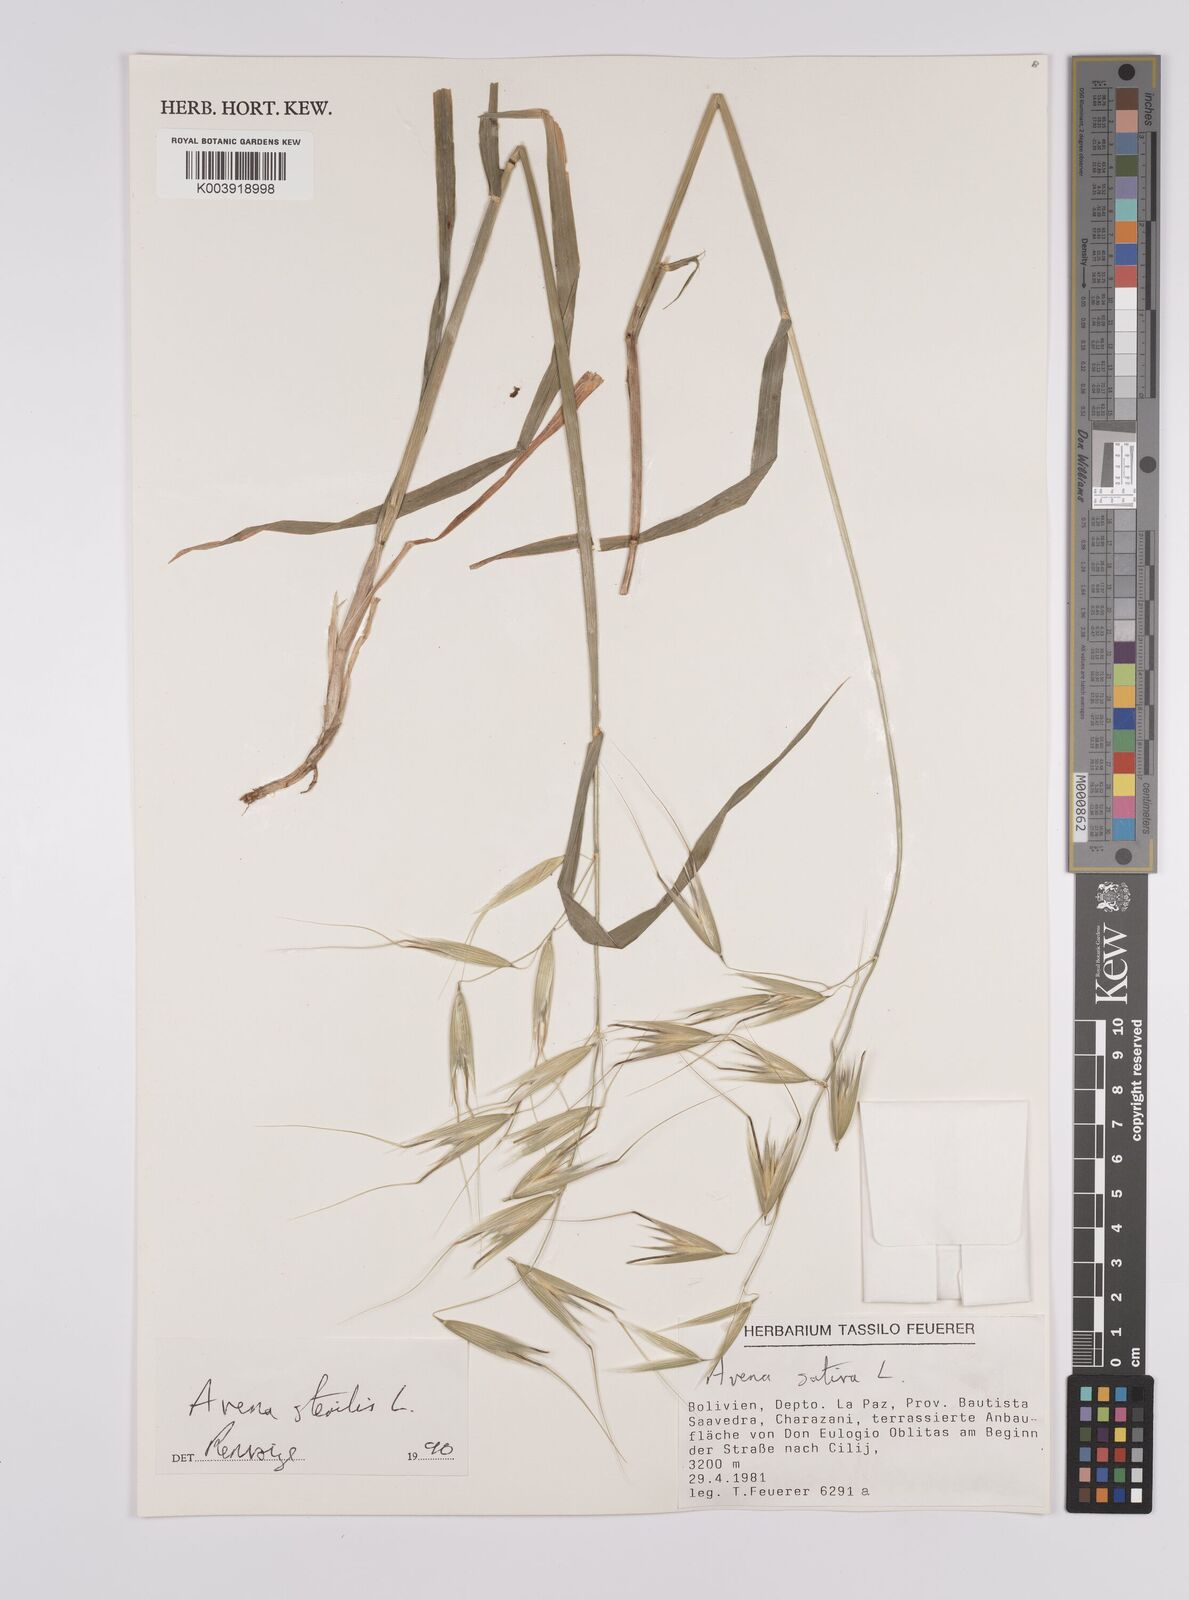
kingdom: Plantae
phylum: Tracheophyta
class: Liliopsida
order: Poales
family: Poaceae
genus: Avena
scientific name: Avena sterilis
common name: Animated oat
